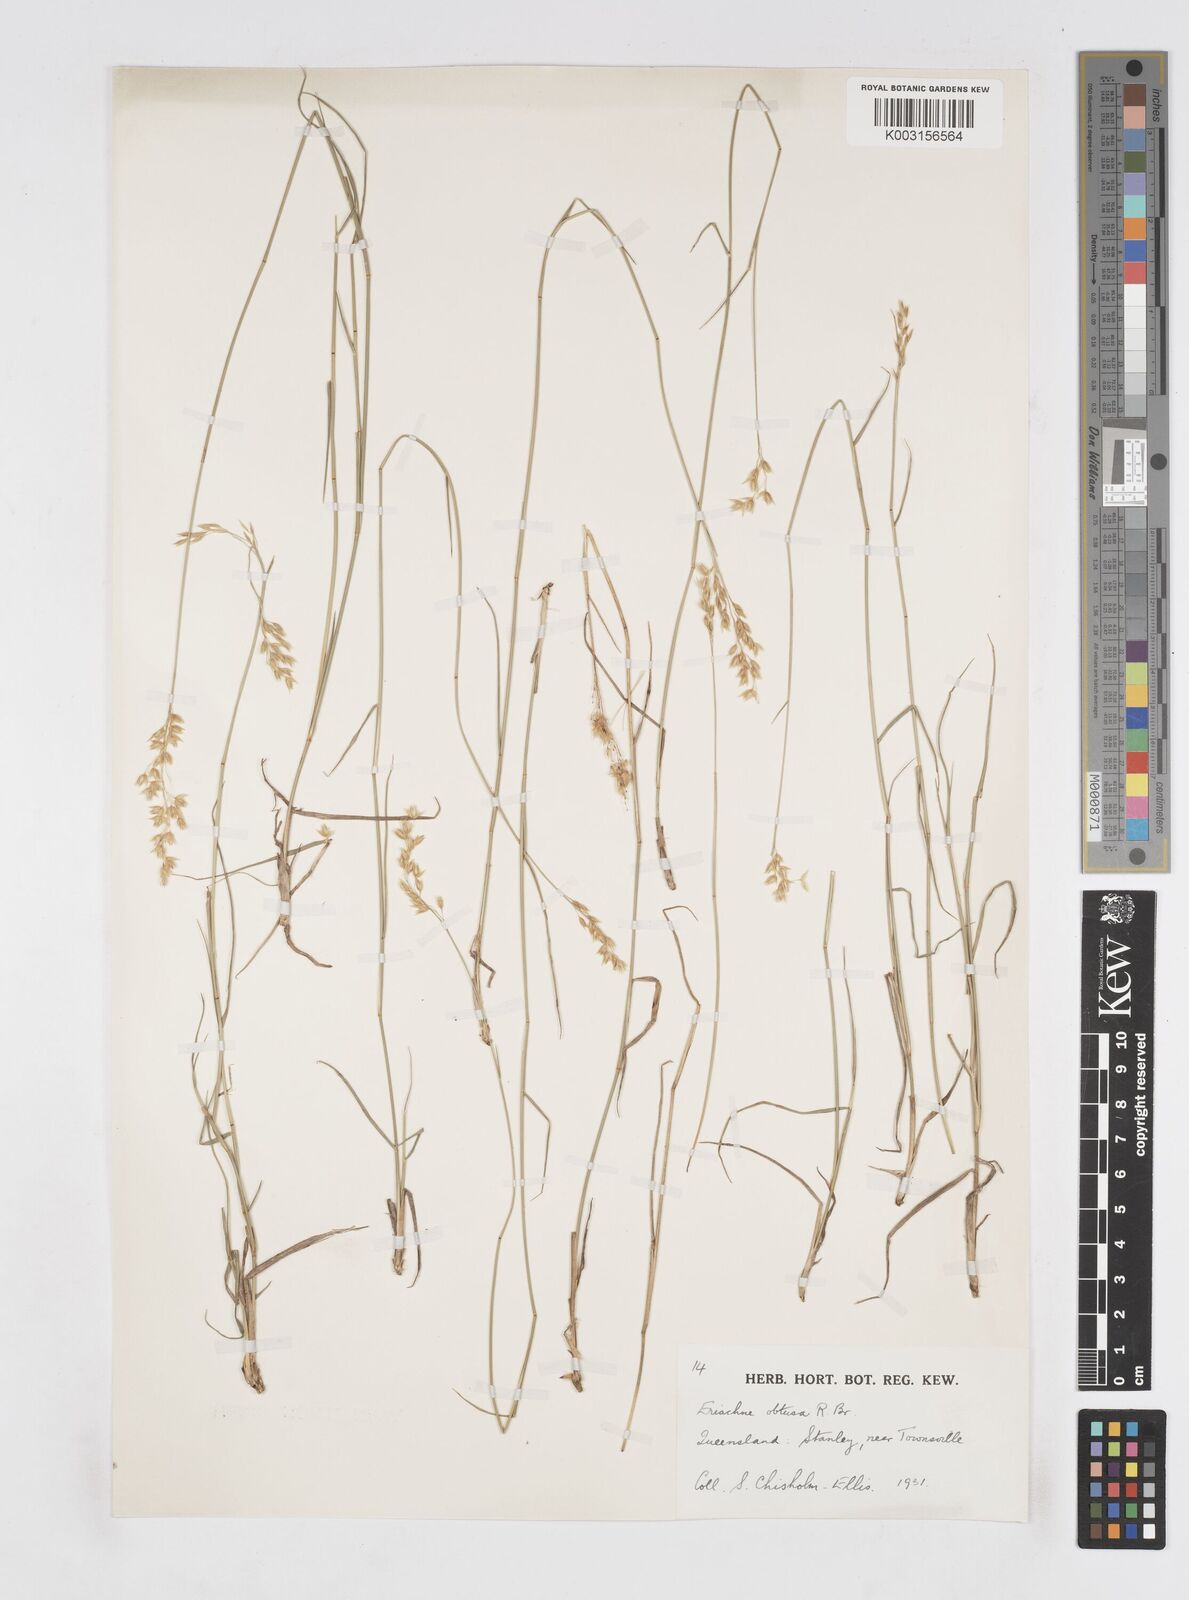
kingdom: Plantae
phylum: Tracheophyta
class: Liliopsida
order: Poales
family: Poaceae
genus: Eriachne
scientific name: Eriachne obtusa
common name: Northern wanderrie grass
